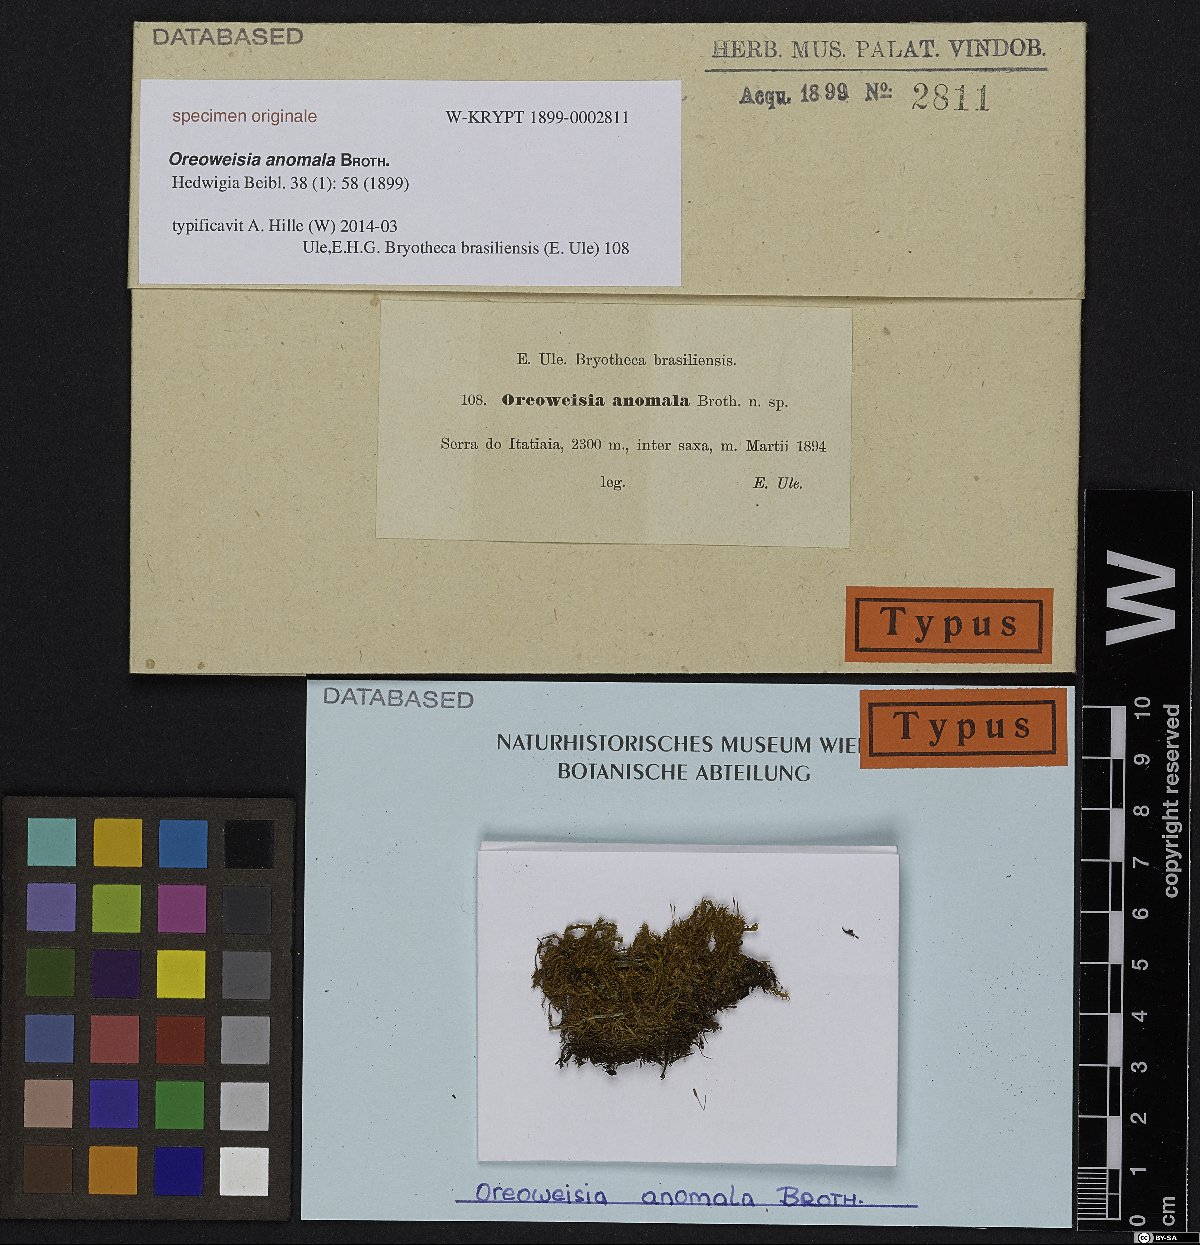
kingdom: Plantae
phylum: Bryophyta
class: Bryopsida
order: Dicranales
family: Dicranaceae
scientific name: Dicranaceae
